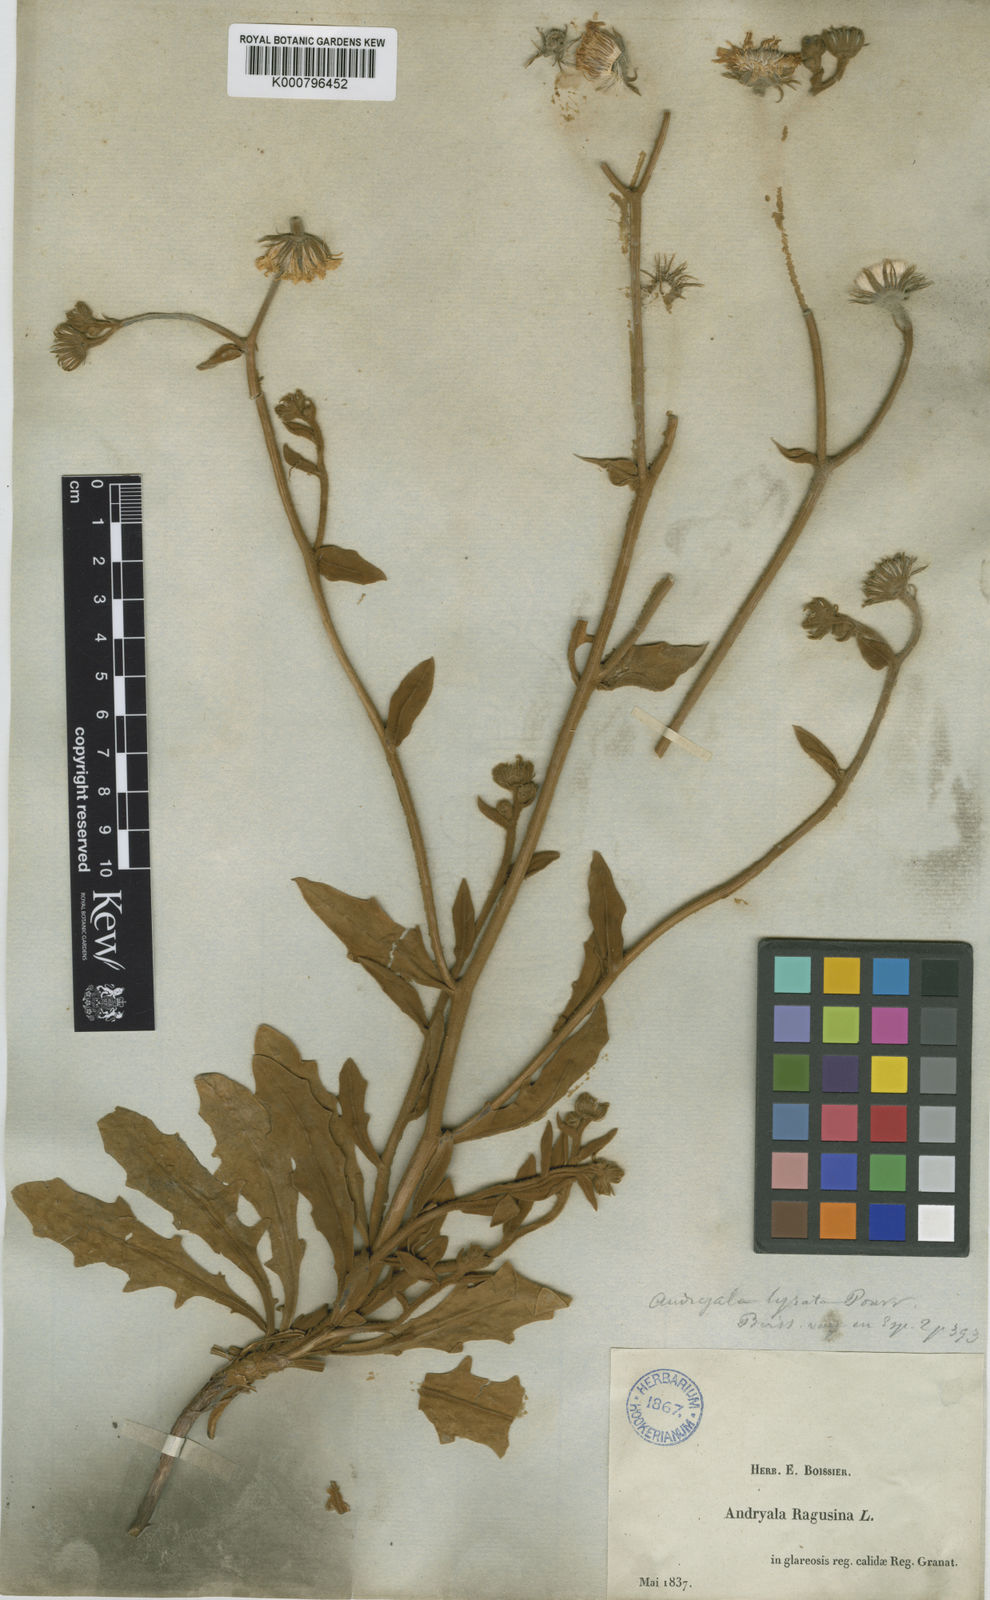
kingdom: Plantae
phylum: Tracheophyta
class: Magnoliopsida
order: Asterales
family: Asteraceae
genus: Andryala
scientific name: Andryala ragusina
